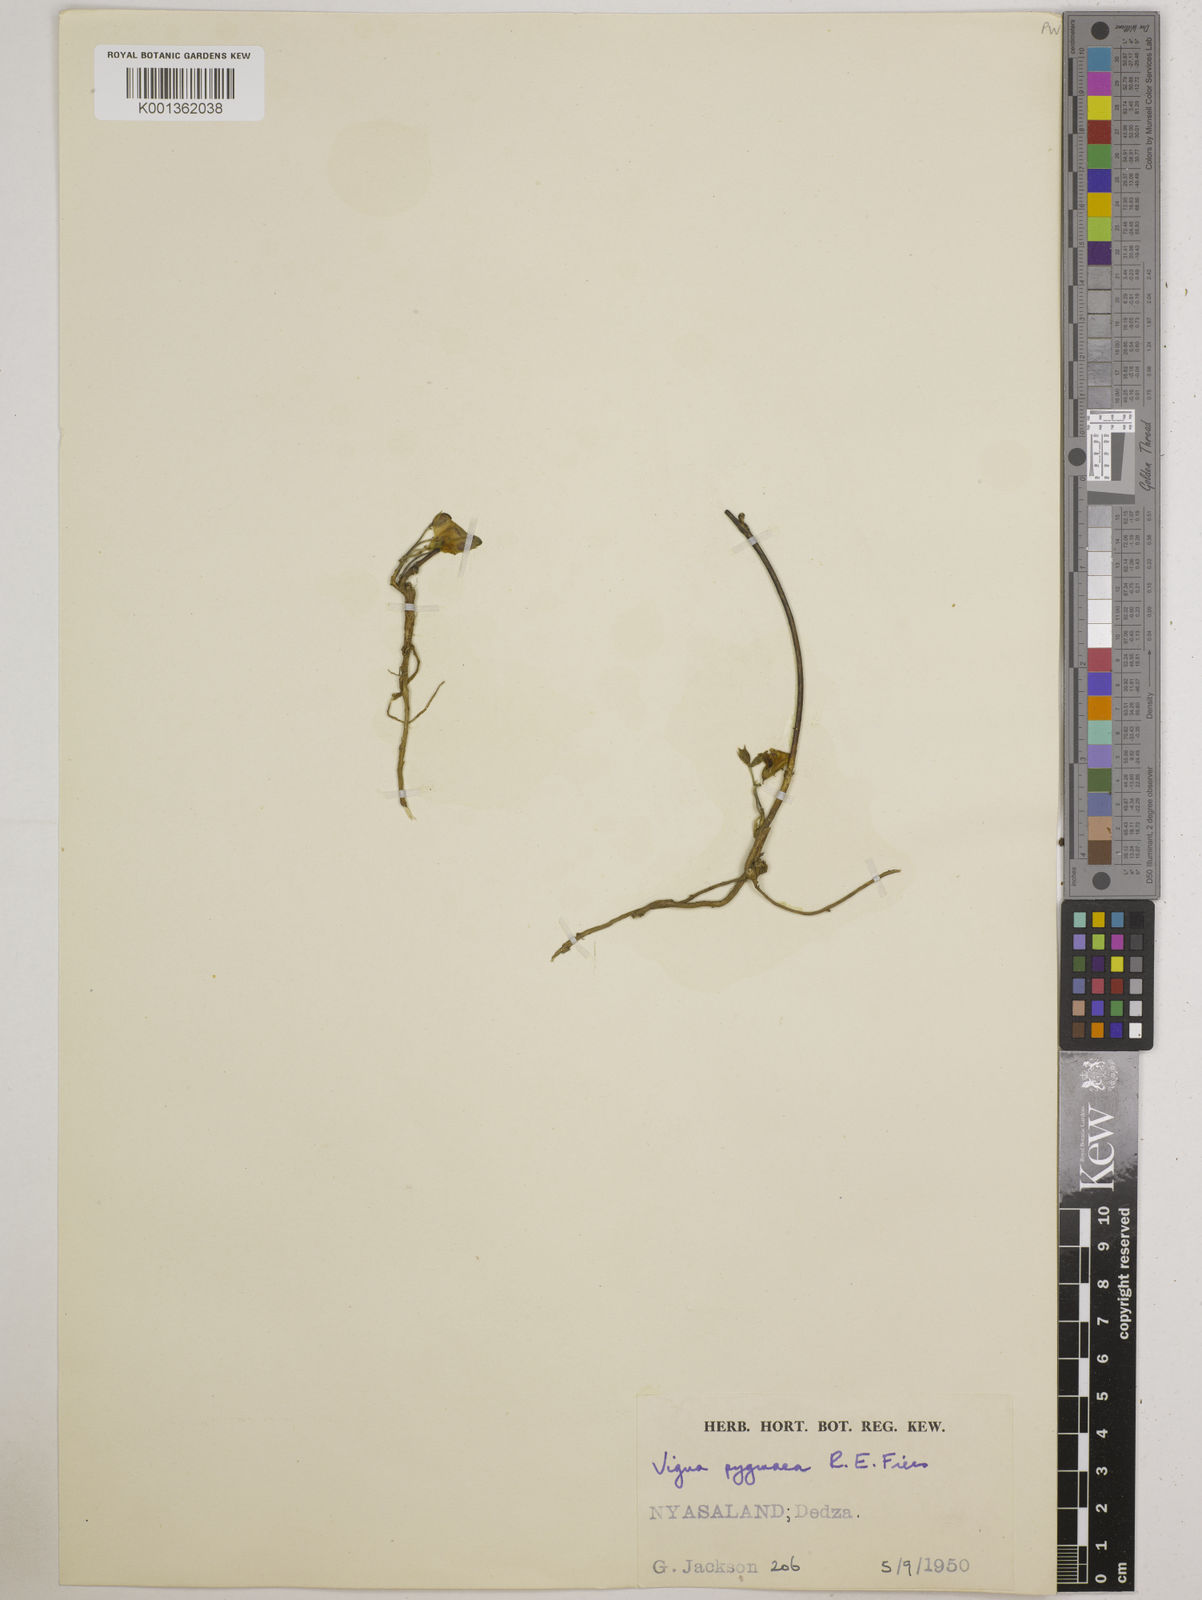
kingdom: Plantae
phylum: Tracheophyta
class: Magnoliopsida
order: Fabales
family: Fabaceae
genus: Vigna
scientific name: Vigna pygmaea
